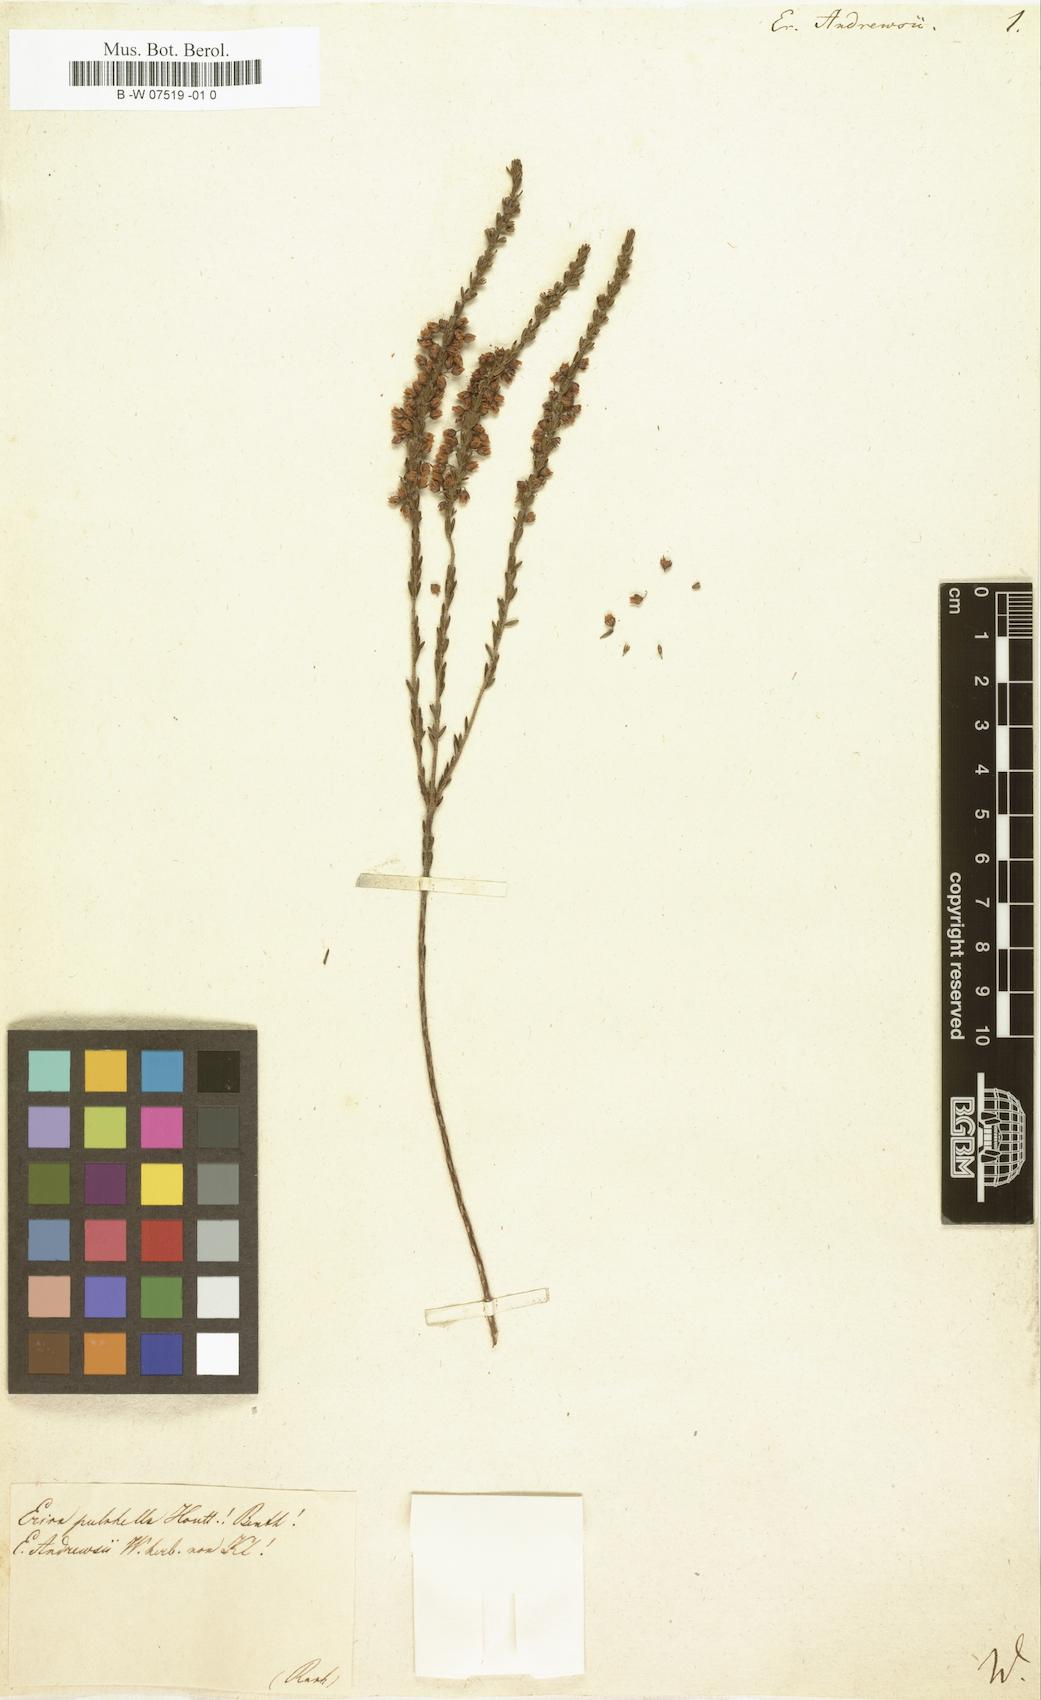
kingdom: Plantae
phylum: Tracheophyta
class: Magnoliopsida
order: Ericales
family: Ericaceae
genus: Erica
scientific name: Erica massonii
